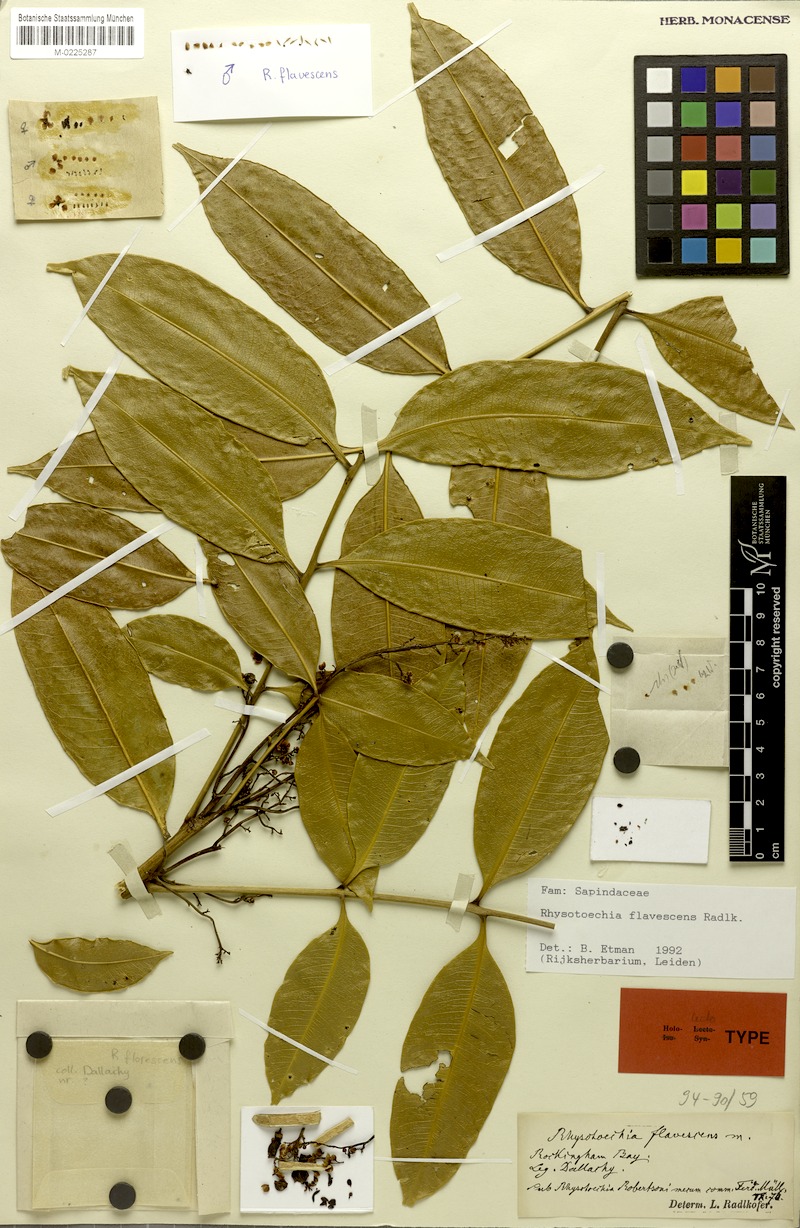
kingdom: Plantae
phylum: Tracheophyta
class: Magnoliopsida
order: Sapindales
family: Sapindaceae
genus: Rhysotoechia
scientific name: Rhysotoechia flavescens
